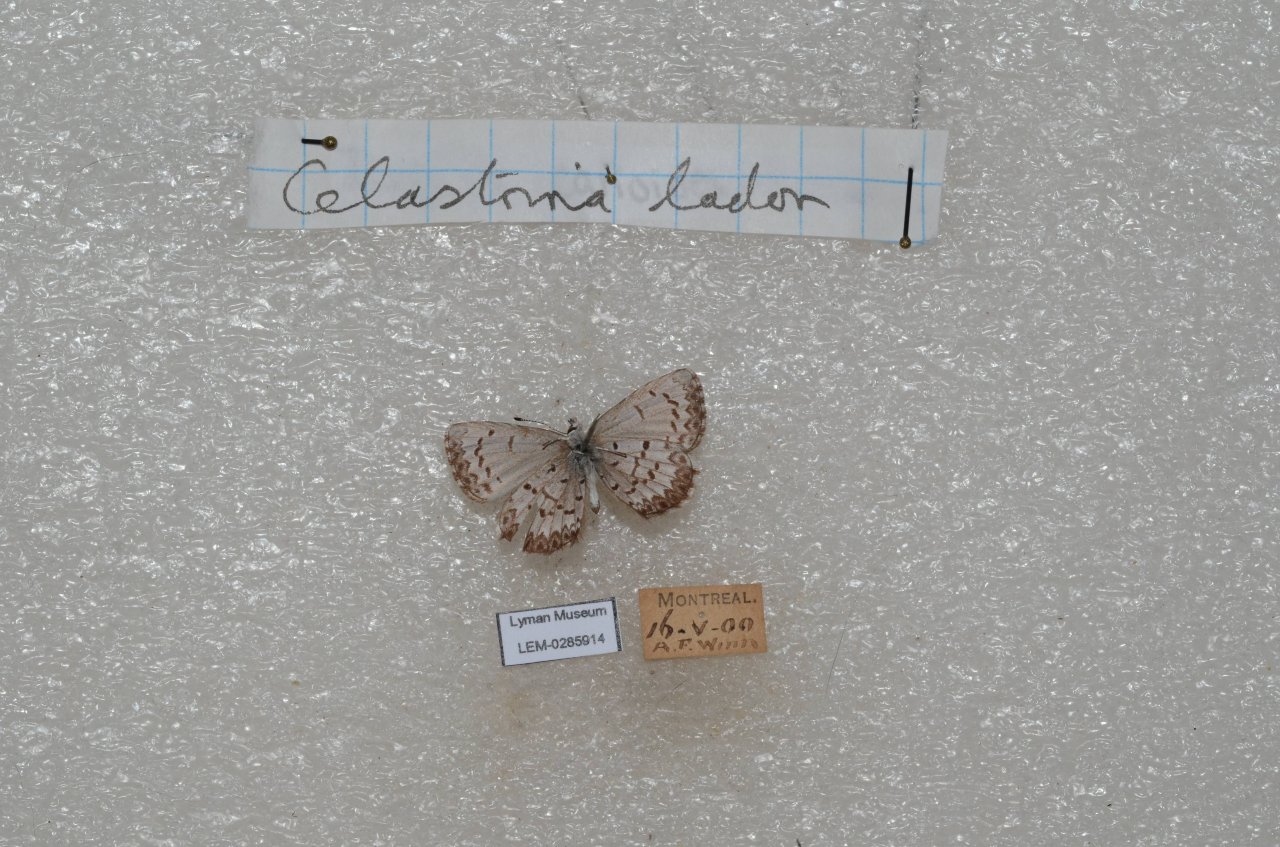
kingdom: Animalia
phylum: Arthropoda
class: Insecta
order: Lepidoptera
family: Lycaenidae
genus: Celastrina
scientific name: Celastrina lucia
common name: Northern Spring Azure
